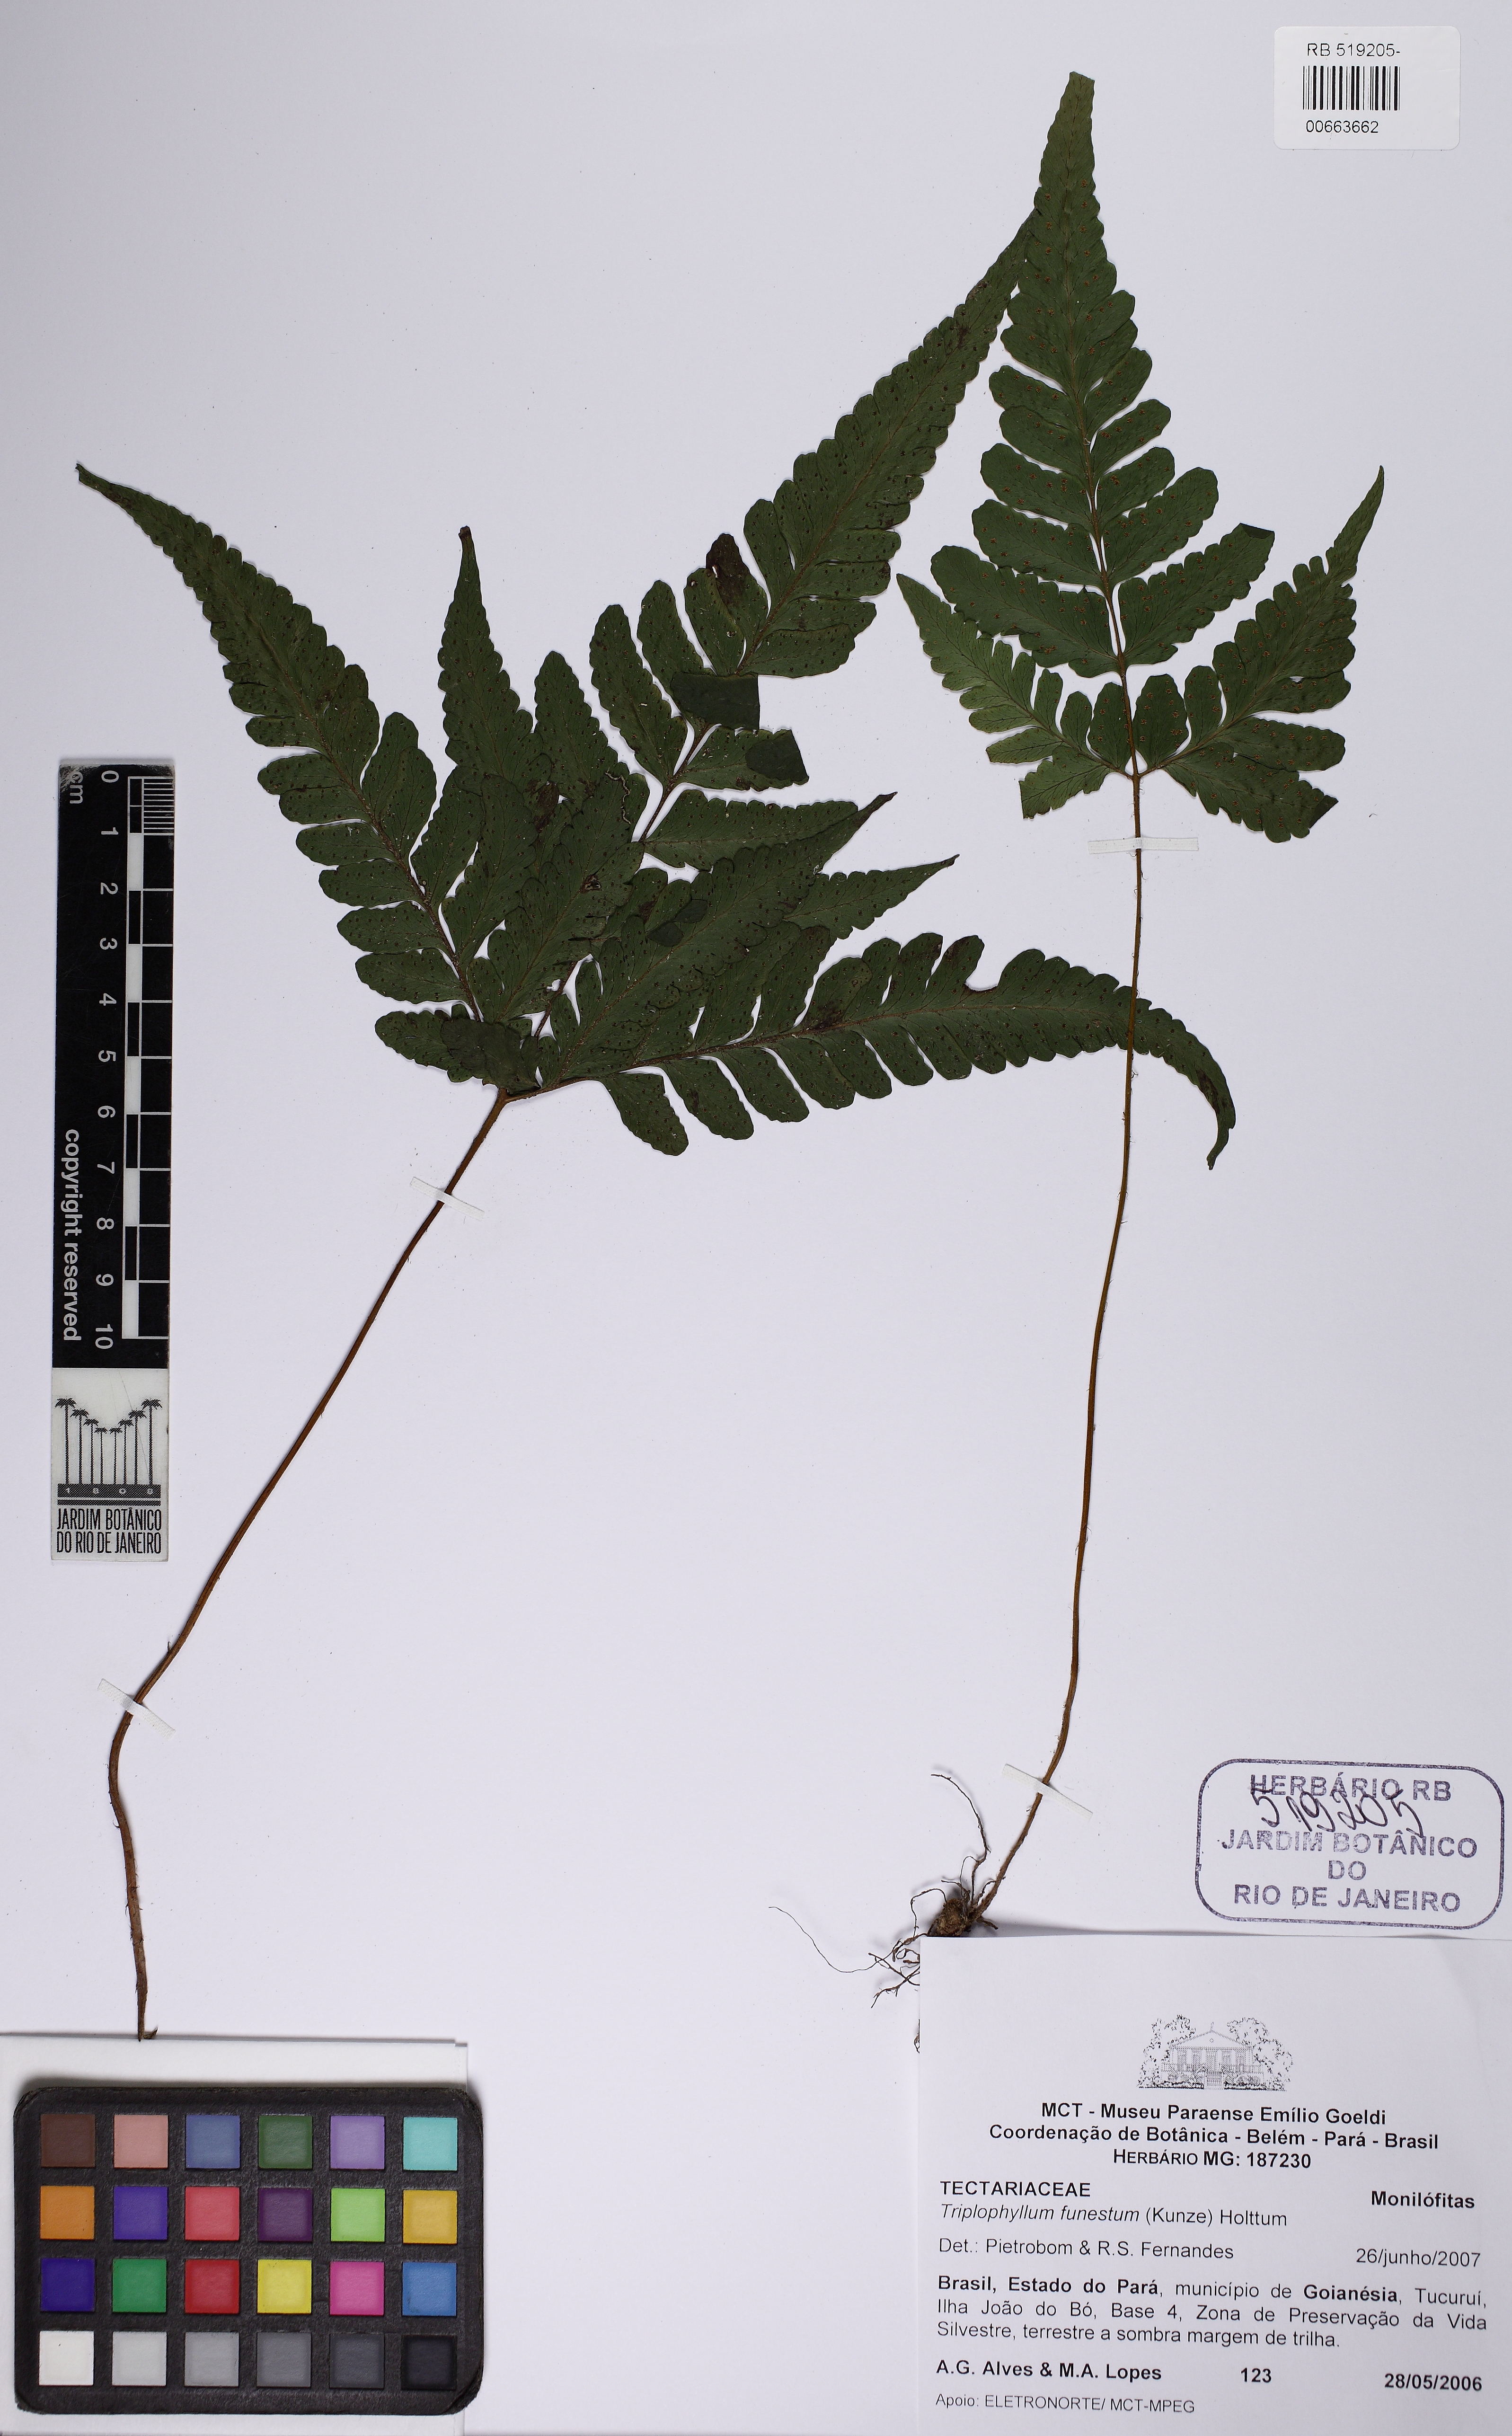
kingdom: Plantae
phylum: Tracheophyta
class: Polypodiopsida
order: Polypodiales
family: Tectariaceae
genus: Triplophyllum
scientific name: Triplophyllum funestum
